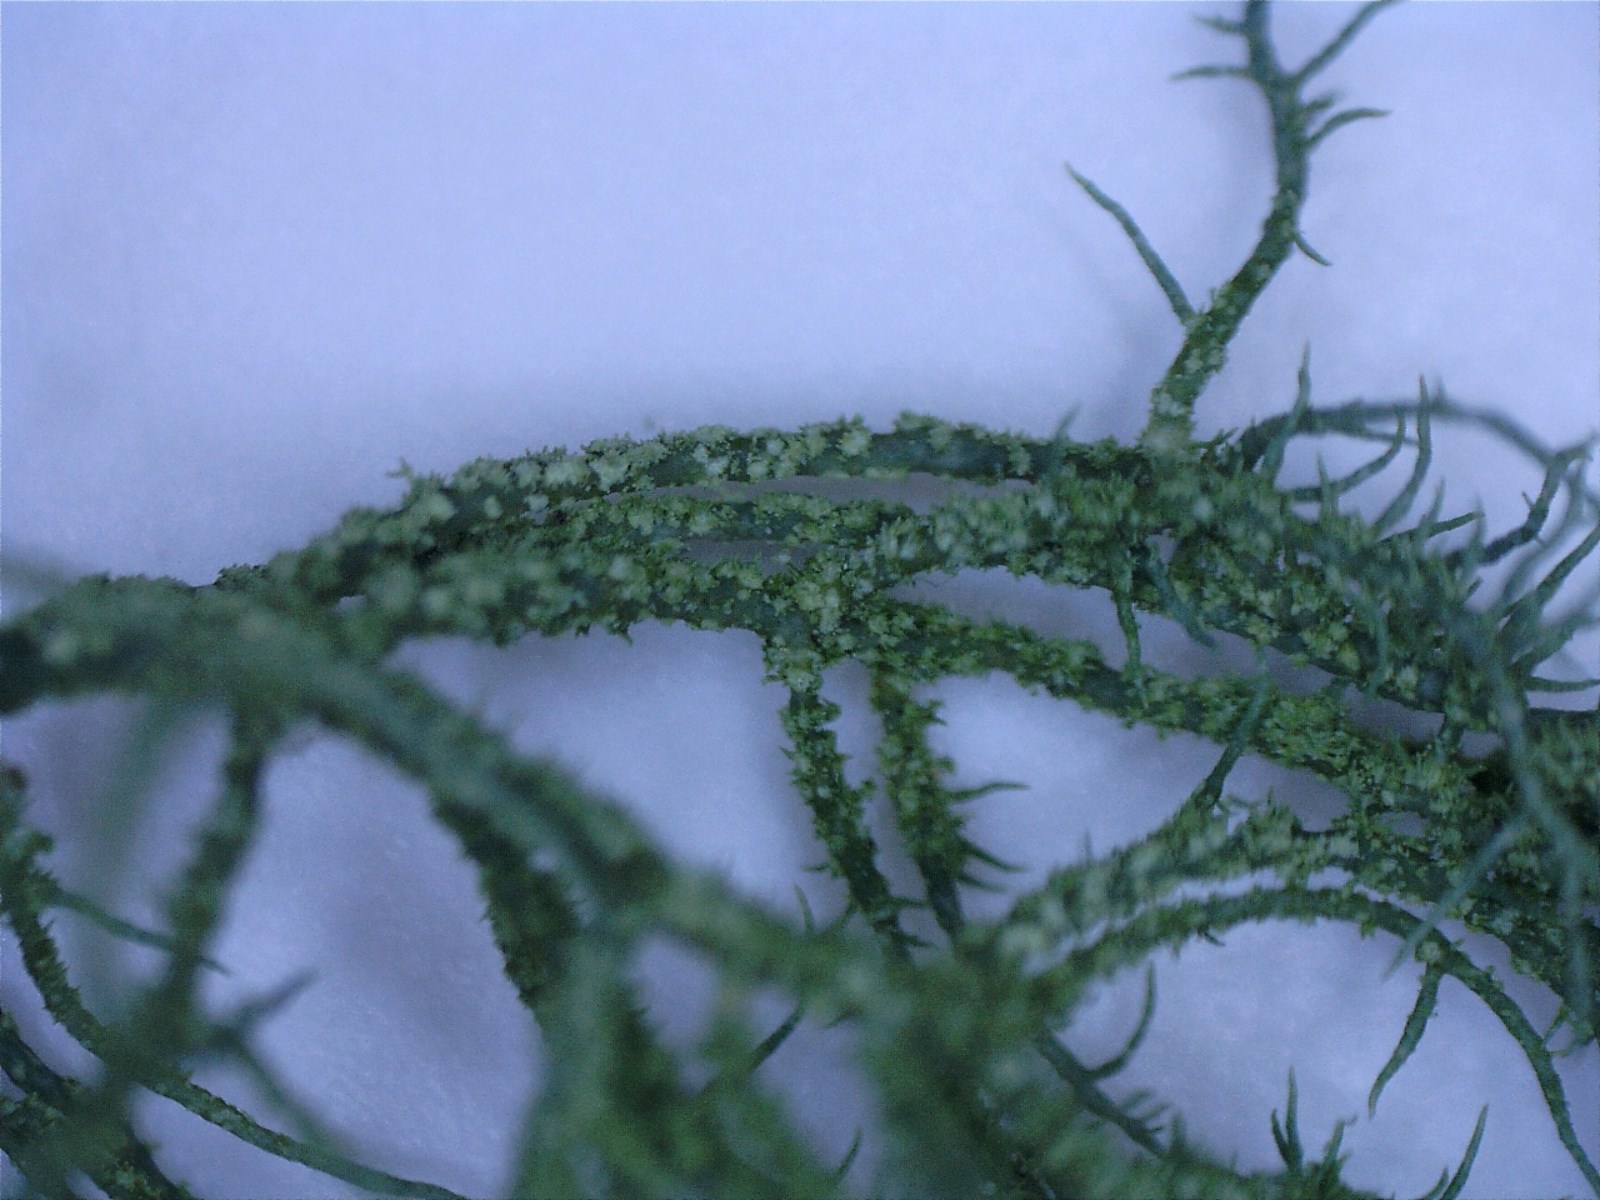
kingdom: Fungi
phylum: Ascomycota
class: Lecanoromycetes
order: Lecanorales
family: Parmeliaceae
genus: Usnea
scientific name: Usnea subfloridana
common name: busket skæglav
